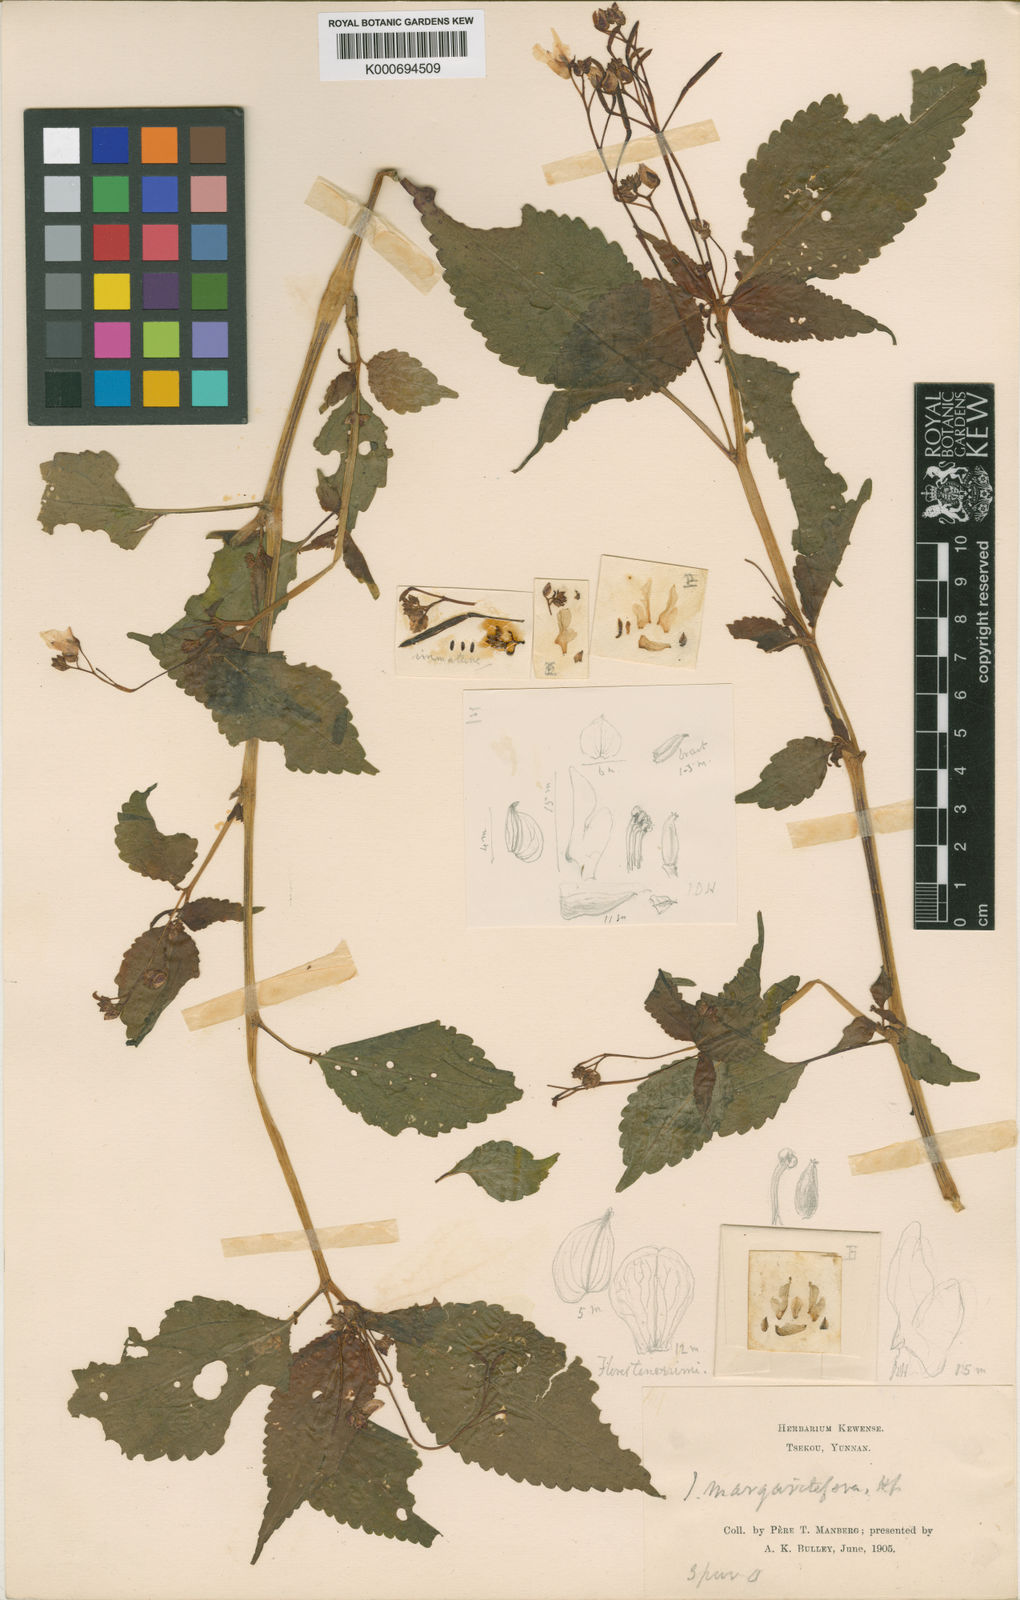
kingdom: Plantae
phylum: Tracheophyta
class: Magnoliopsida
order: Ericales
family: Balsaminaceae
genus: Impatiens
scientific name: Impatiens margaritifera
